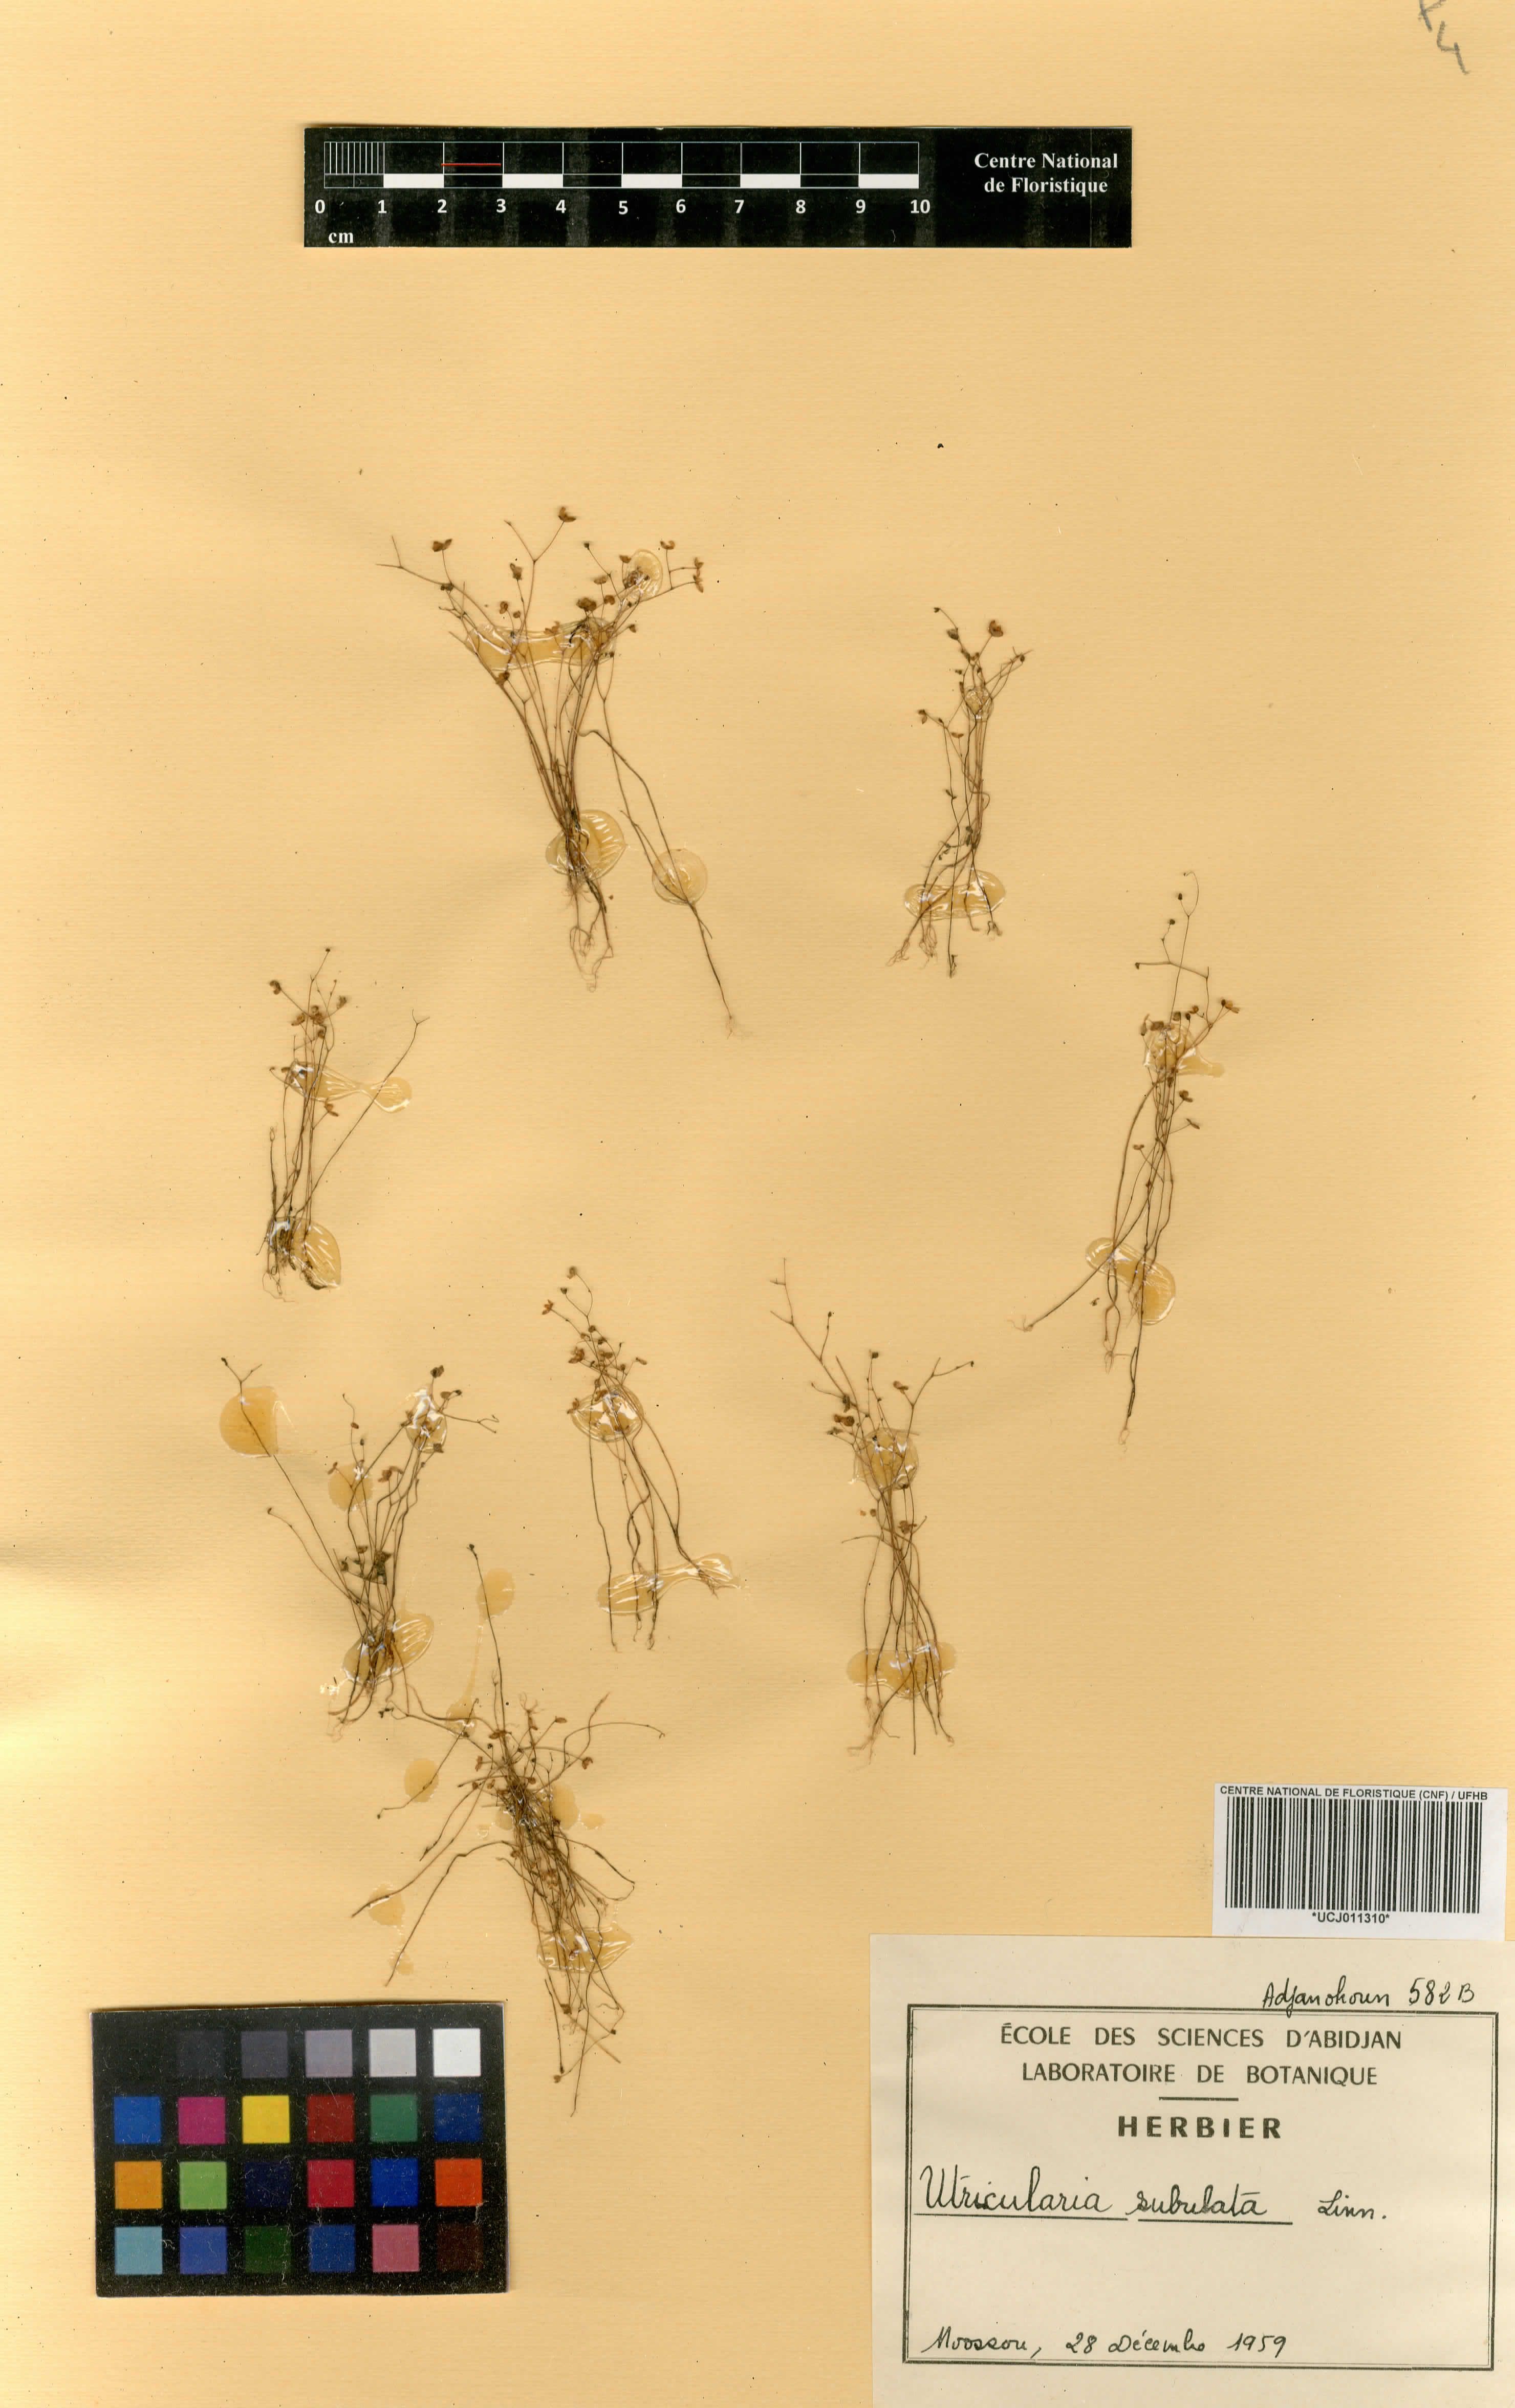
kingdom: Plantae
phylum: Tracheophyta
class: Magnoliopsida
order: Lamiales
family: Lentibulariaceae
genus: Utricularia
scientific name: Utricularia subulata
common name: Tiny bladderwort
